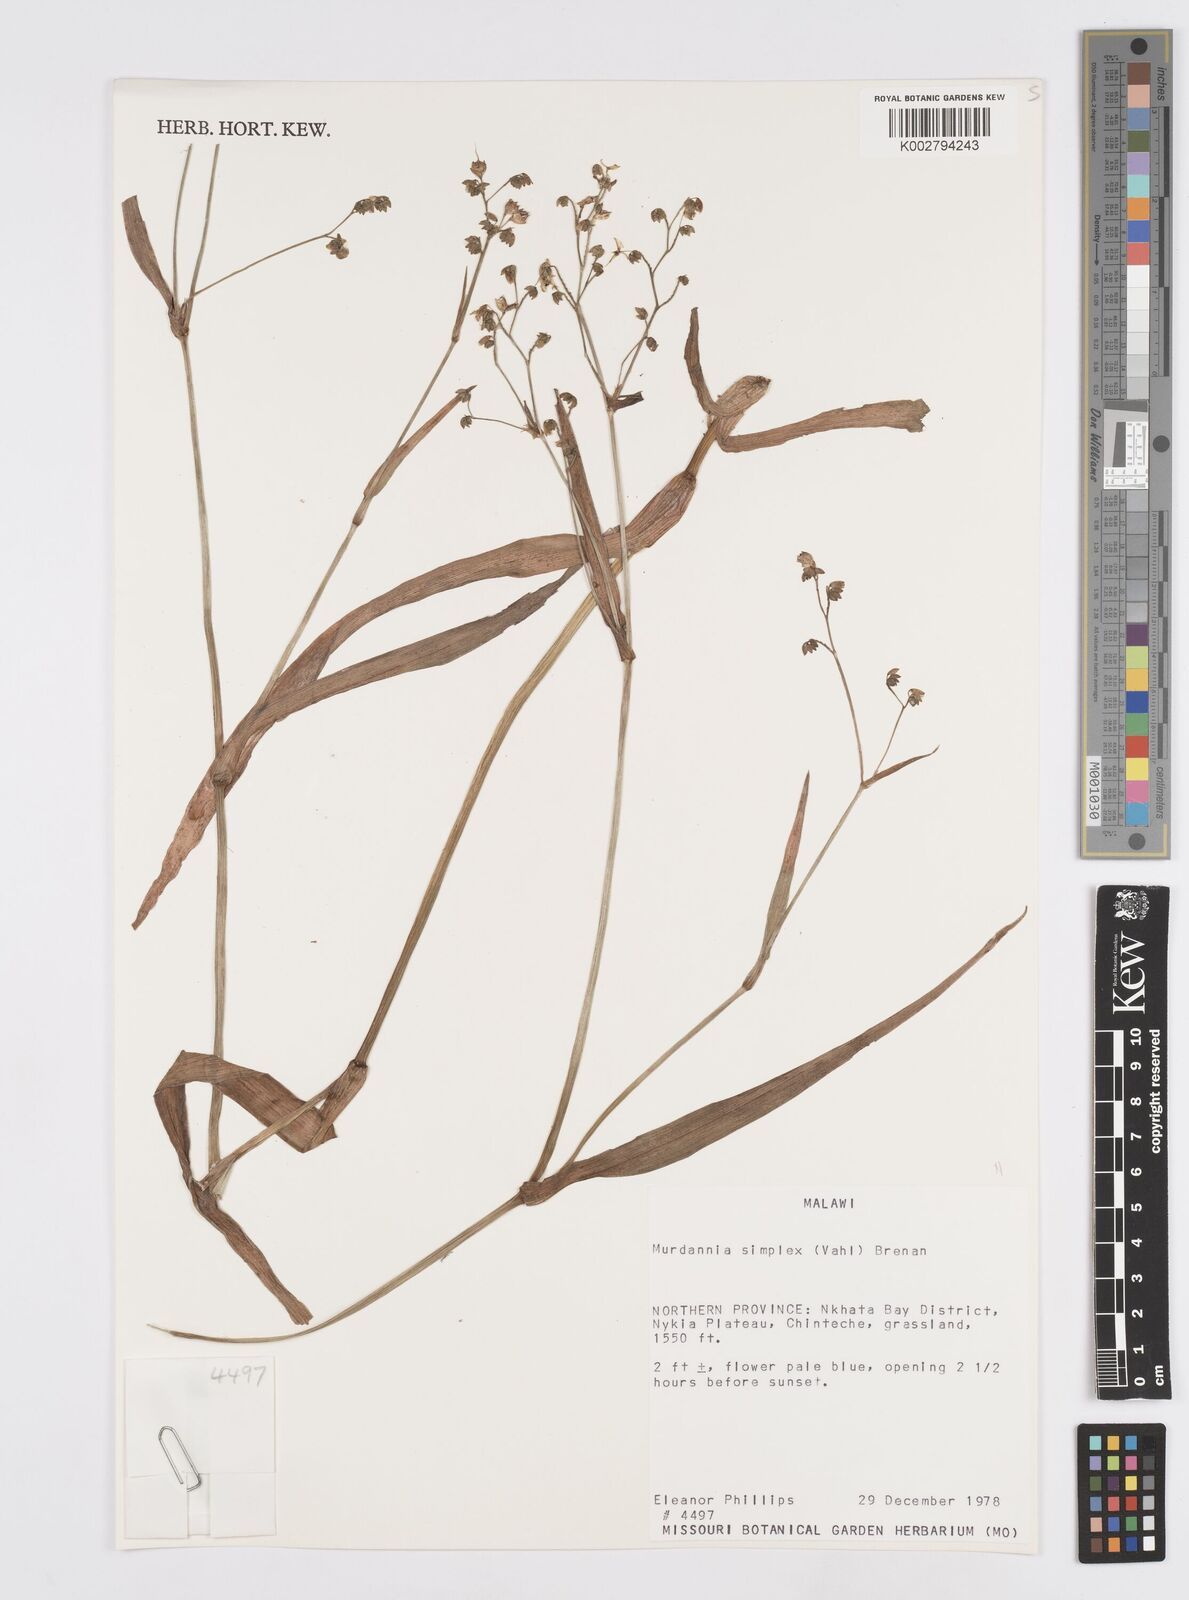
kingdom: Plantae
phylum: Tracheophyta
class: Liliopsida
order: Commelinales
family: Commelinaceae
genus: Murdannia
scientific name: Murdannia simplex
